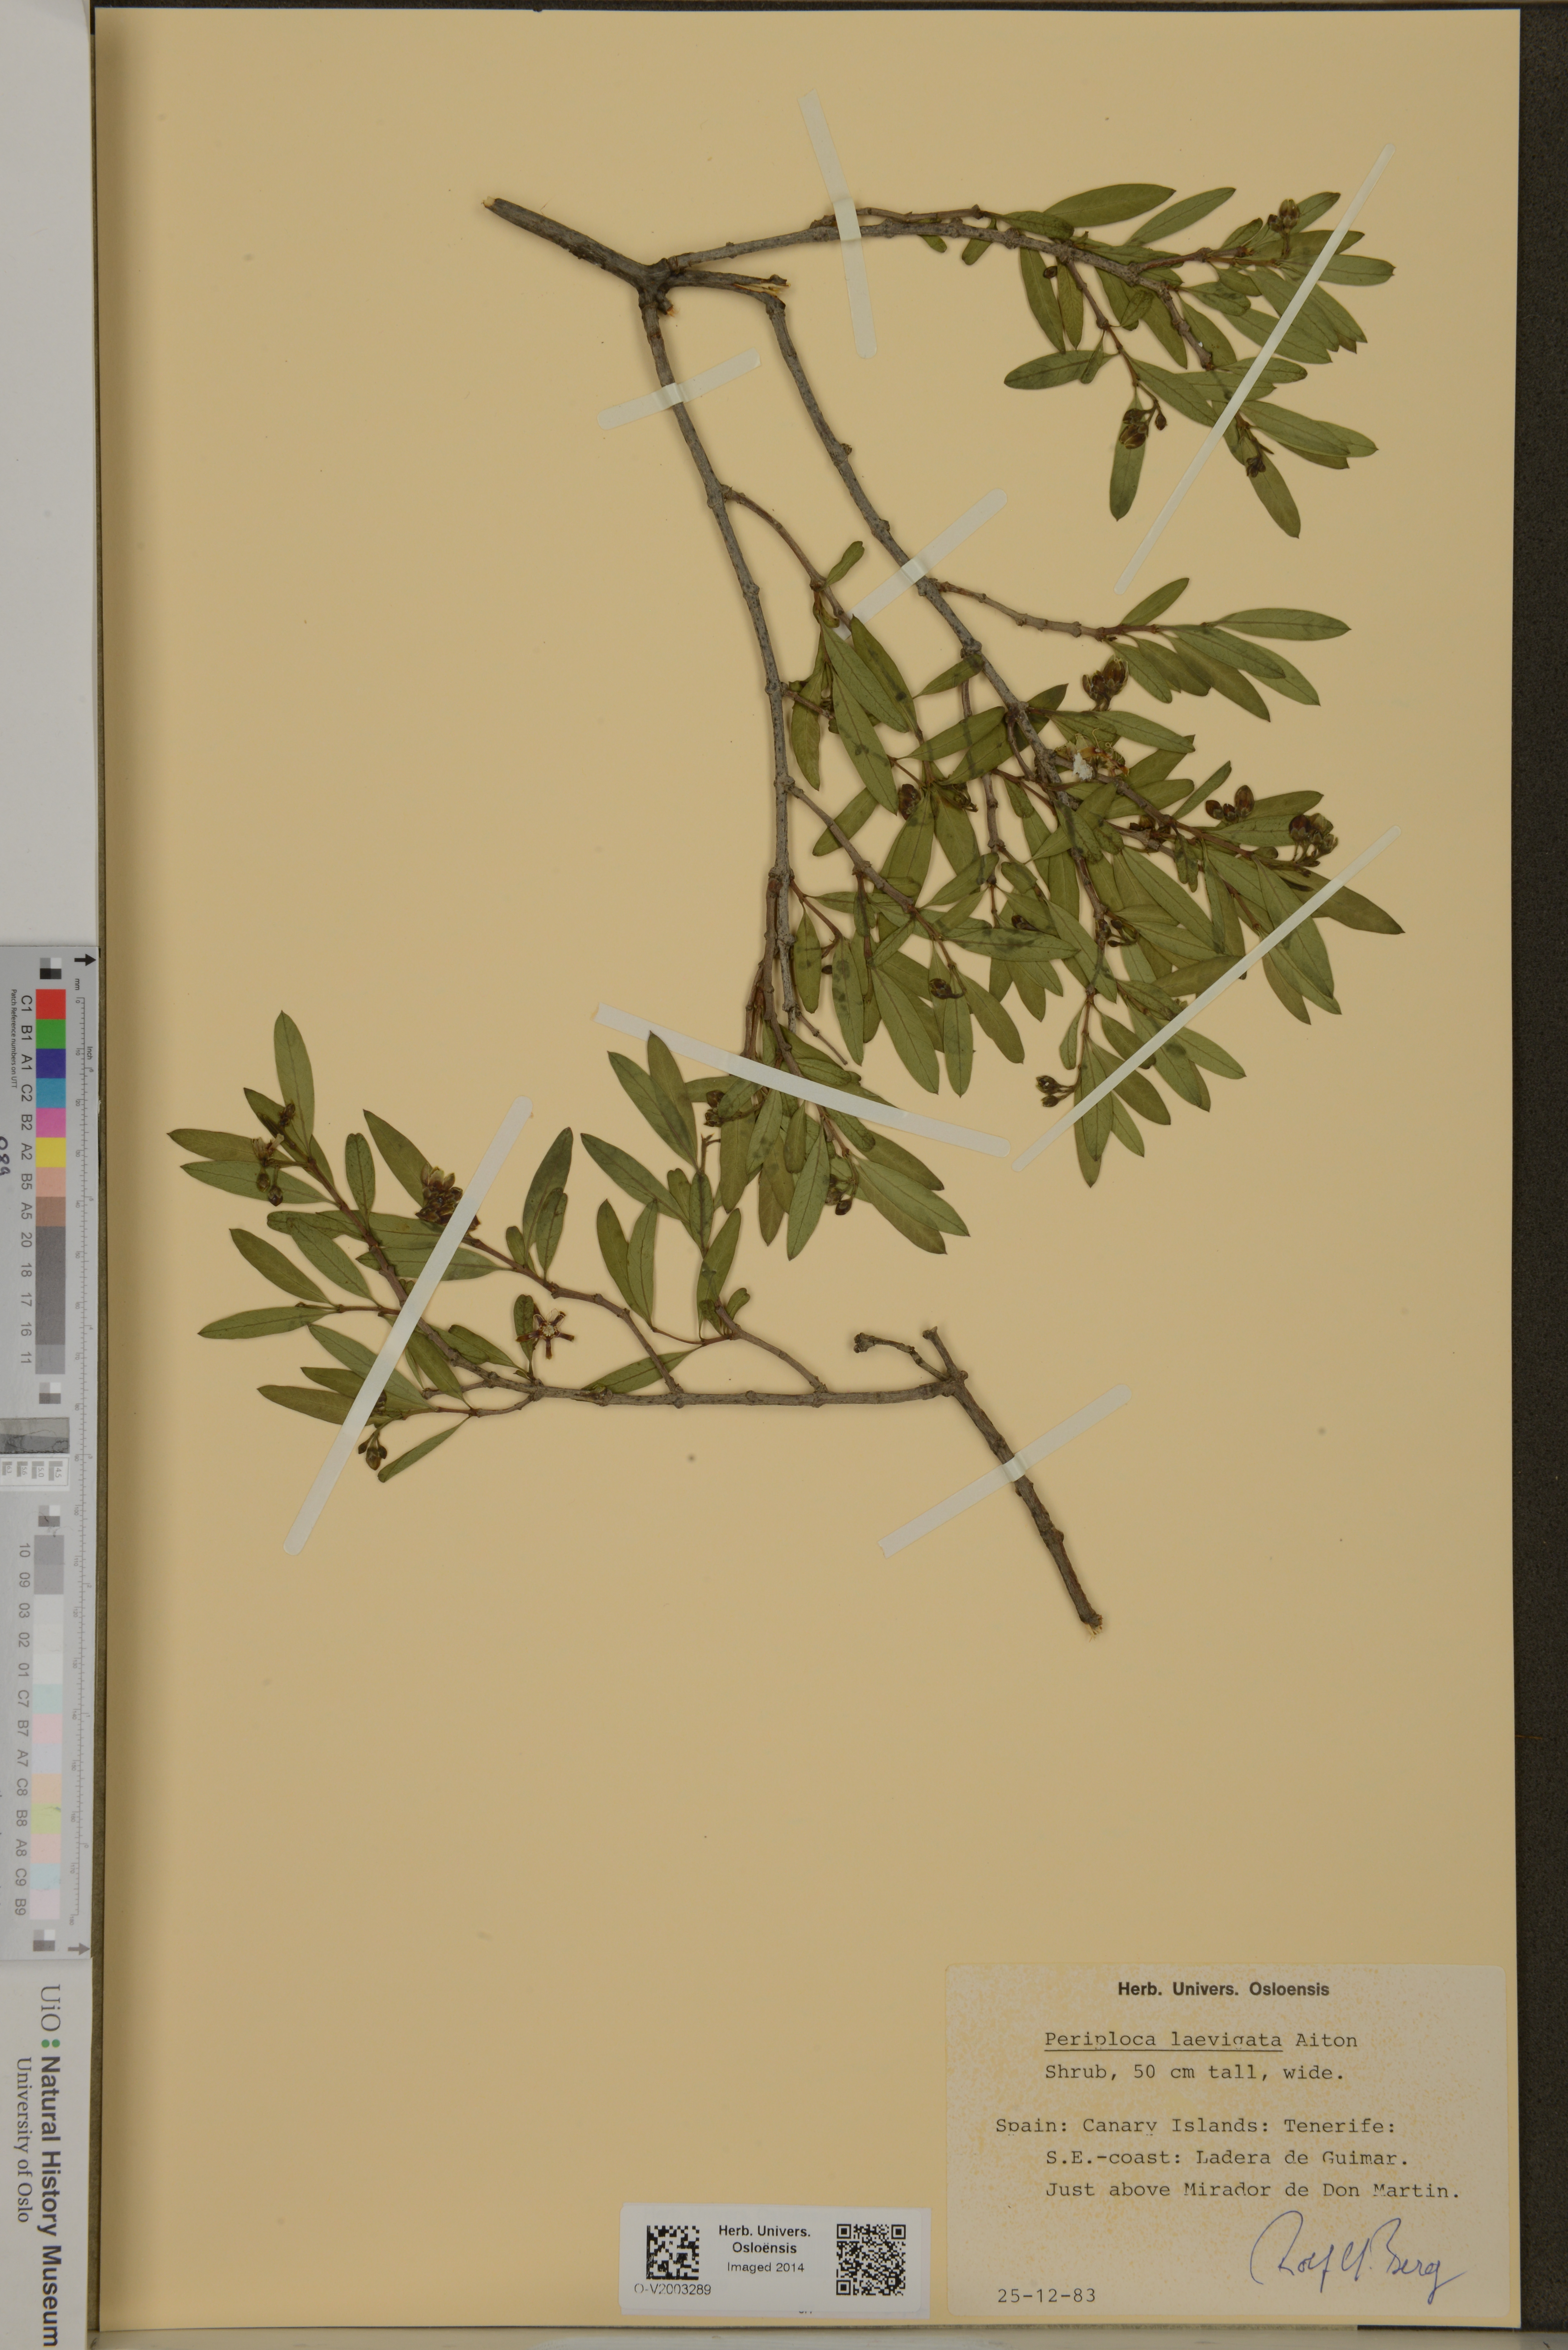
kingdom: Plantae
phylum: Tracheophyta
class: Magnoliopsida
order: Gentianales
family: Apocynaceae
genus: Periploca
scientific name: Periploca laevigata
